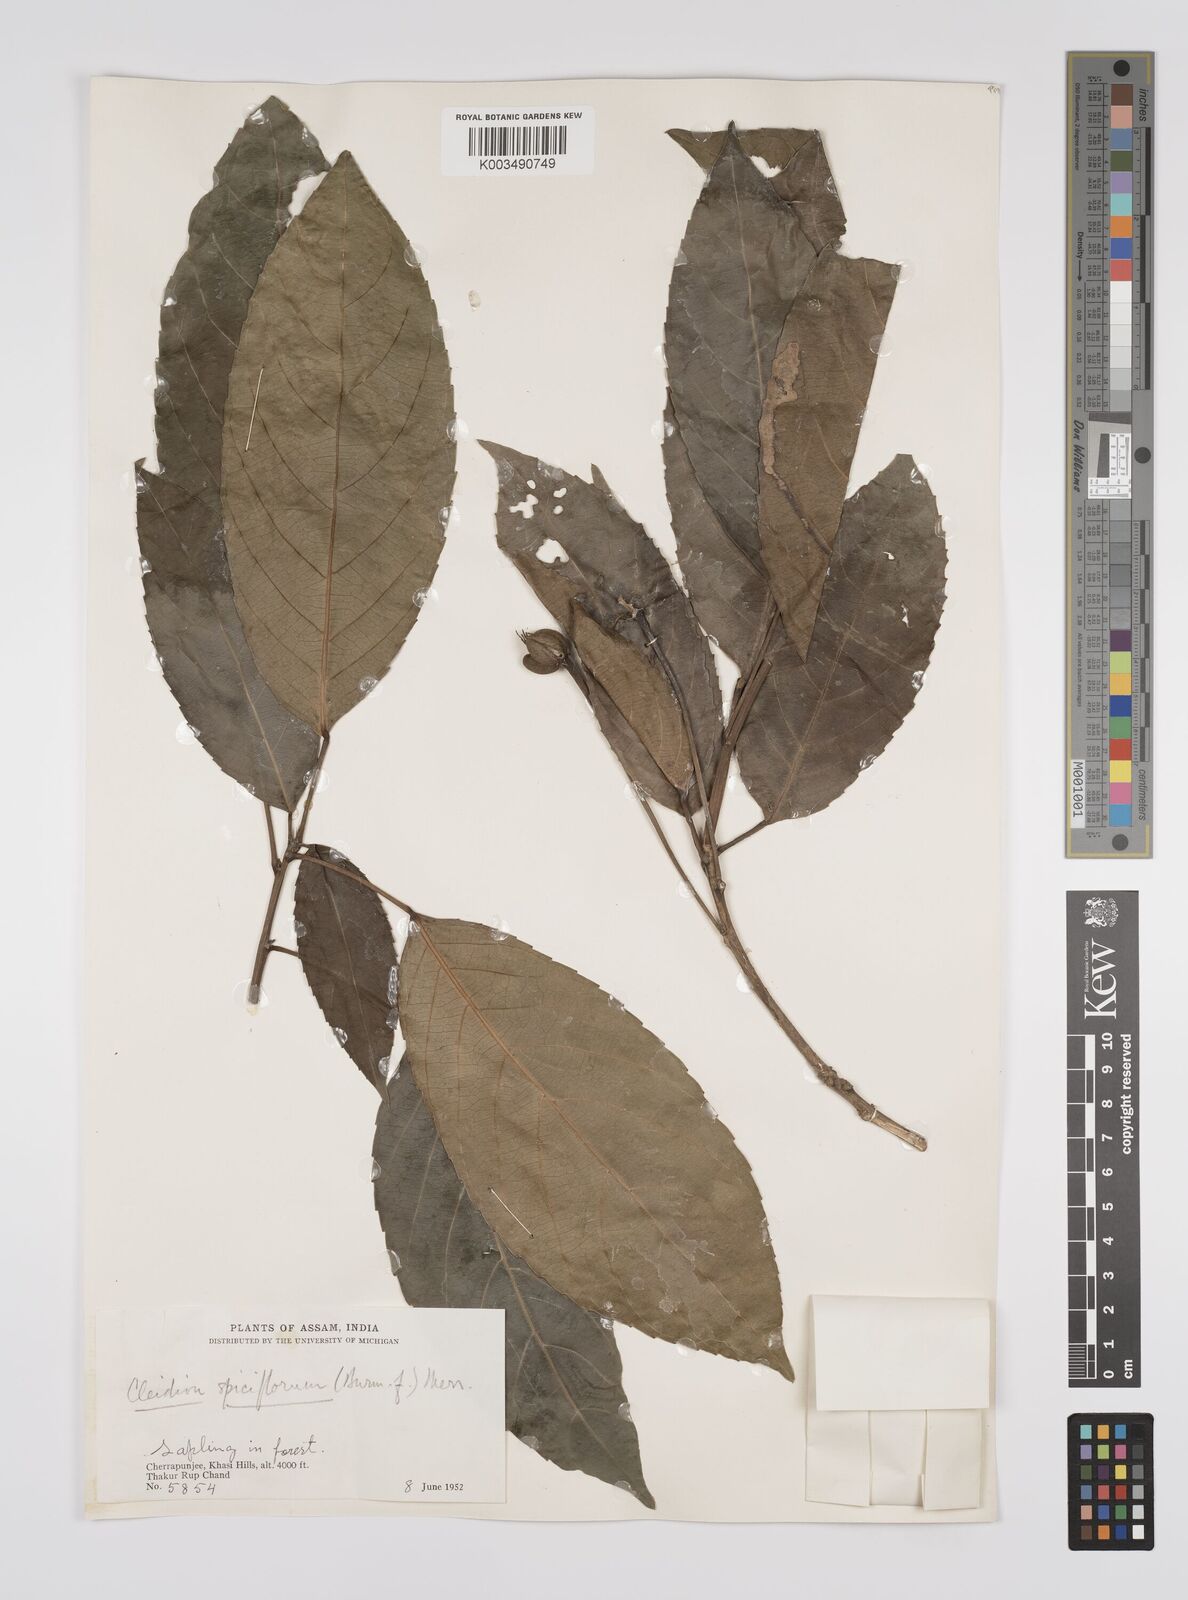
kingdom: Plantae
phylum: Tracheophyta
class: Magnoliopsida
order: Malpighiales
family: Euphorbiaceae
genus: Acalypha
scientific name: Acalypha spiciflora
